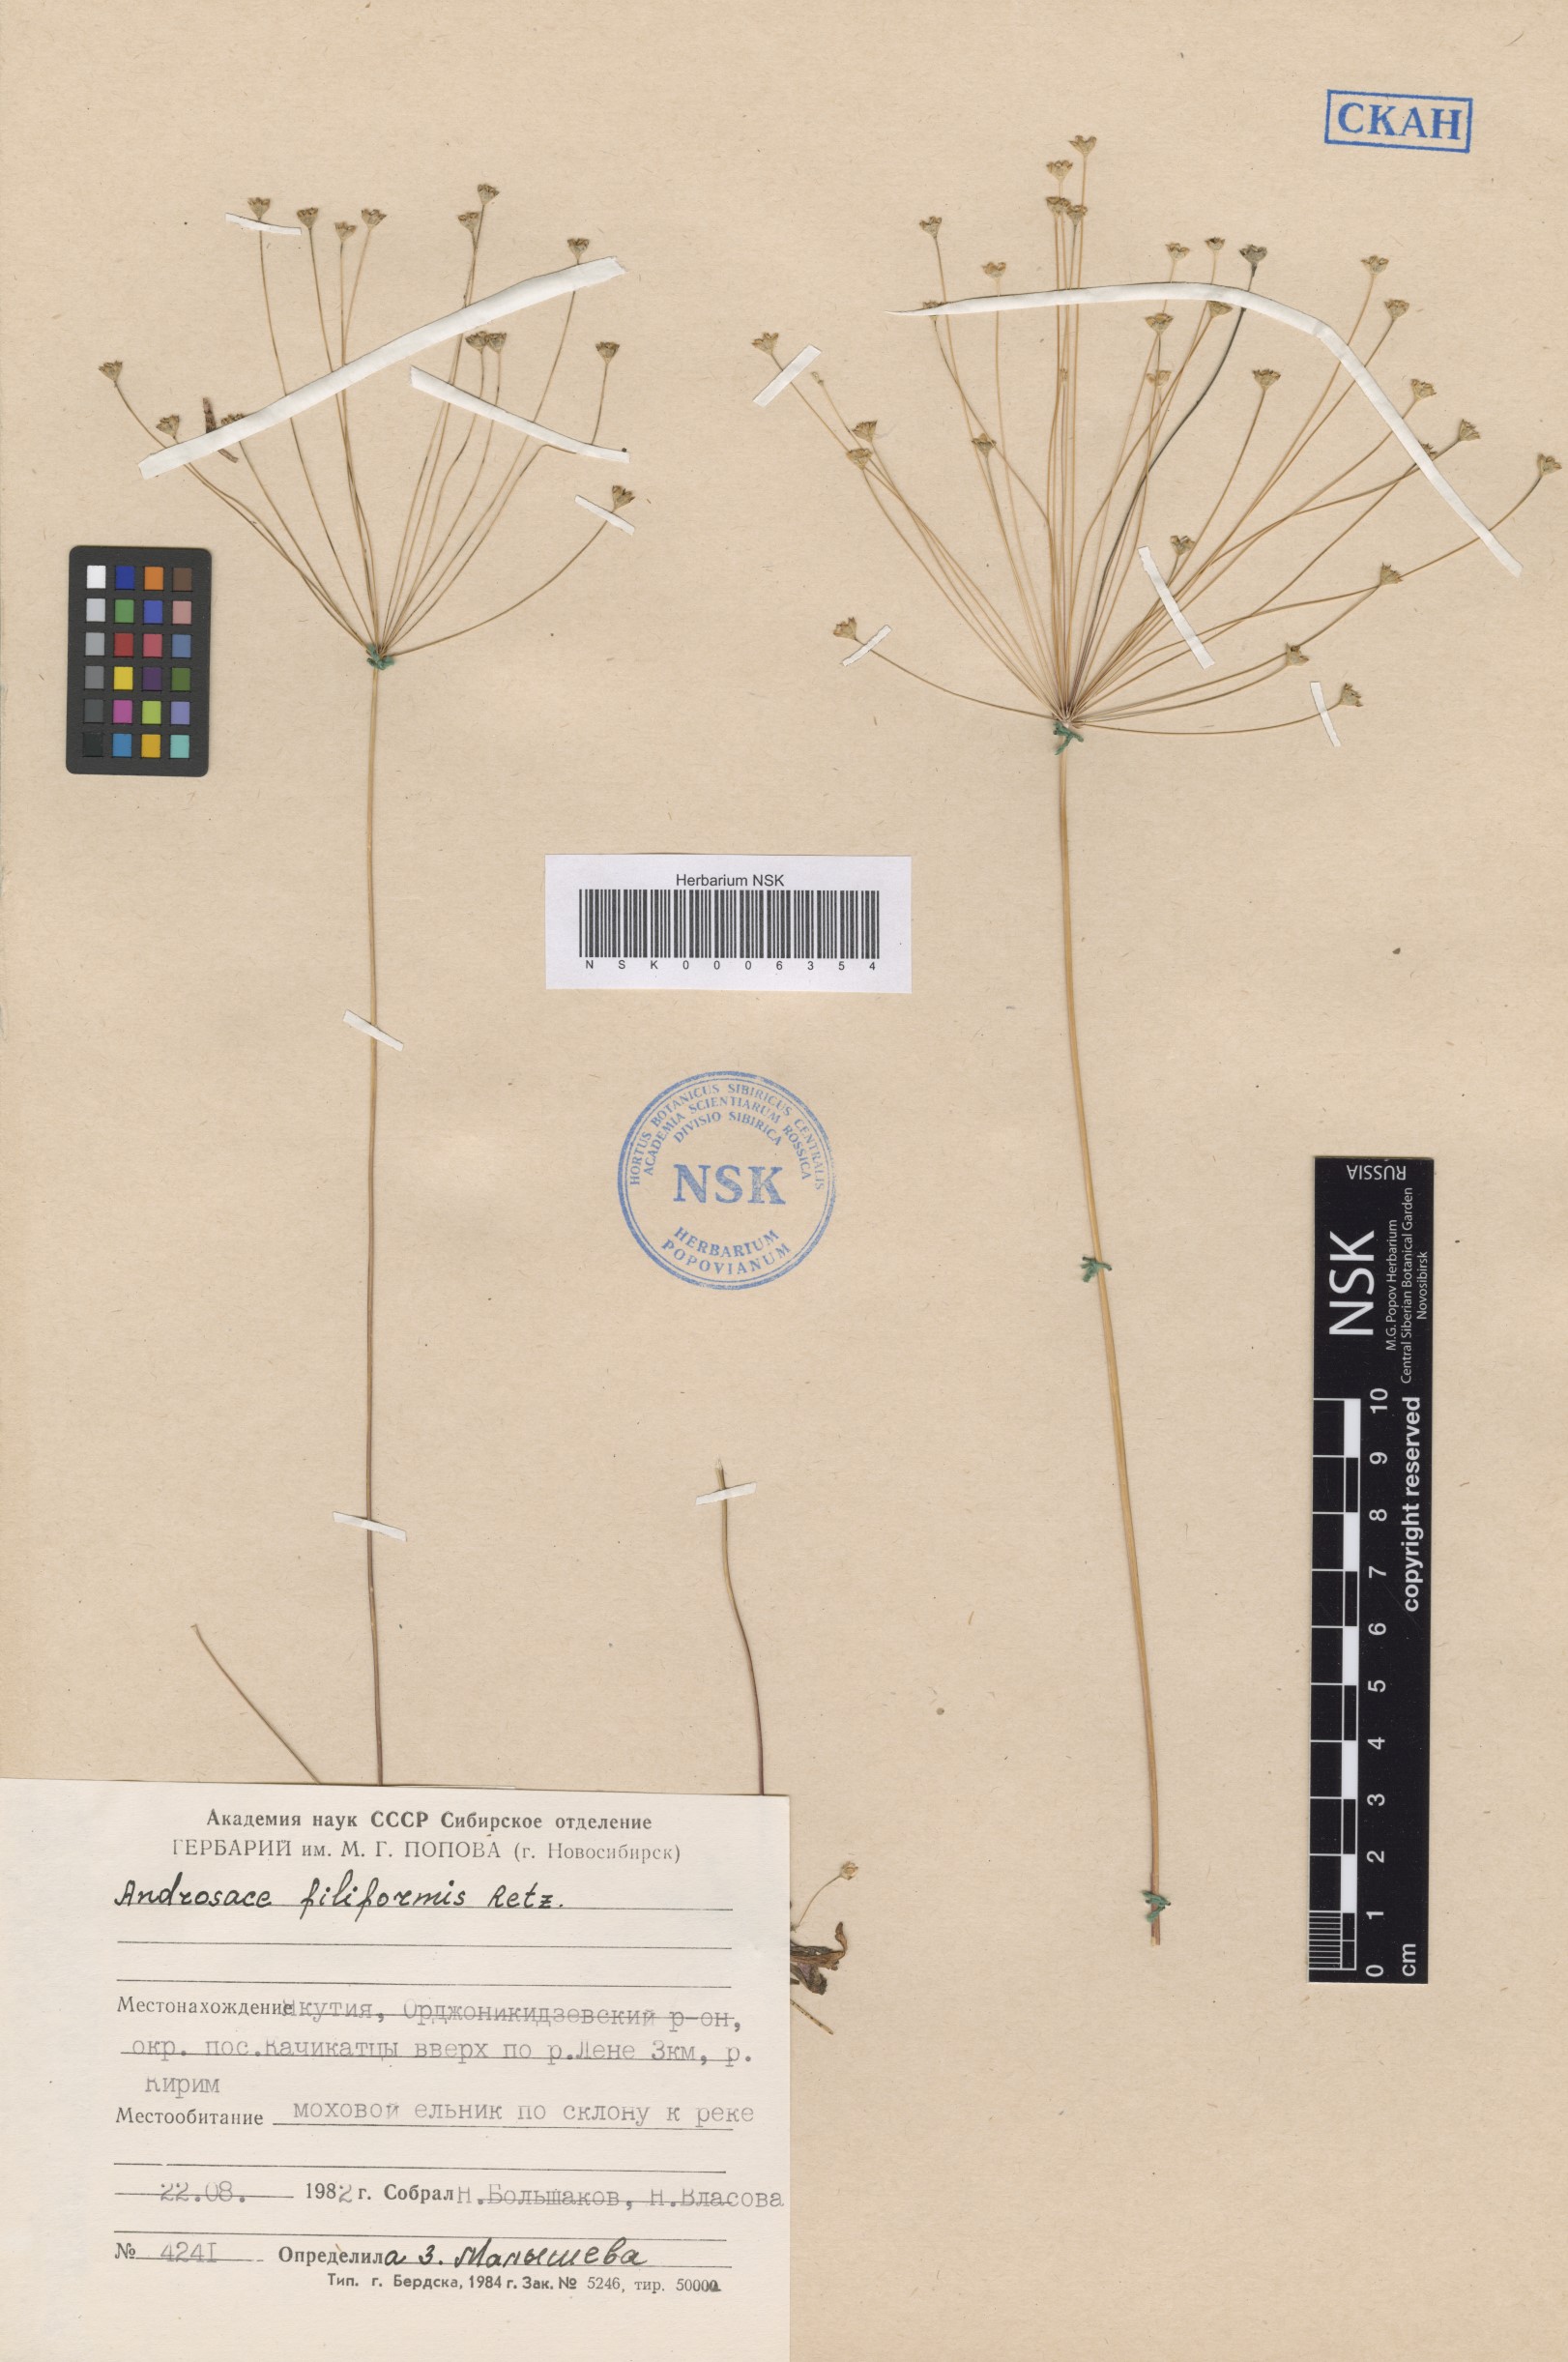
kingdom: Plantae
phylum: Tracheophyta
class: Magnoliopsida
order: Ericales
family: Primulaceae
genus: Androsace
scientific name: Androsace filiformis
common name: Filiform rock jasmine
